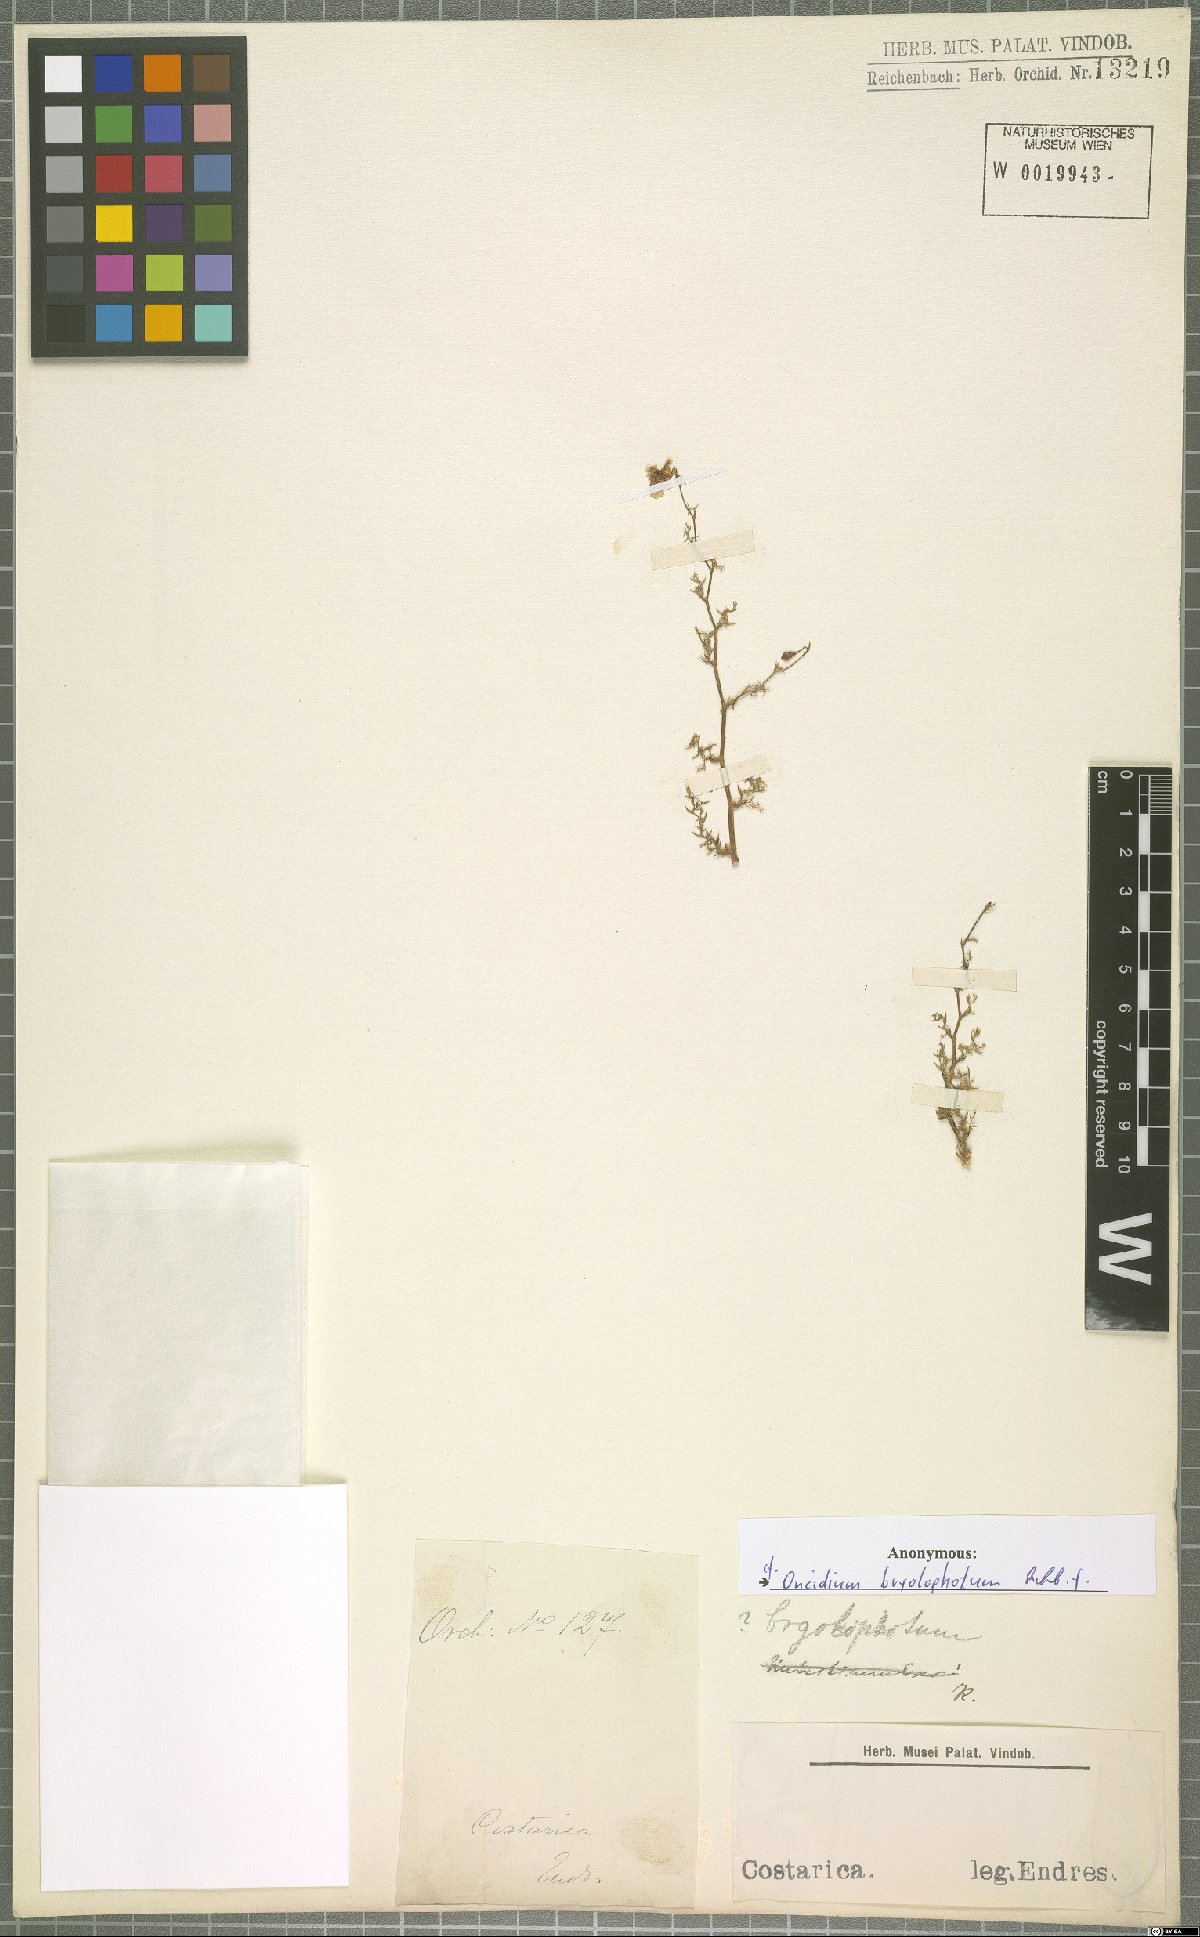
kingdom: Plantae
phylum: Tracheophyta
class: Liliopsida
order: Asparagales
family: Orchidaceae
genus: Oncidium
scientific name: Oncidium bryolophotum
